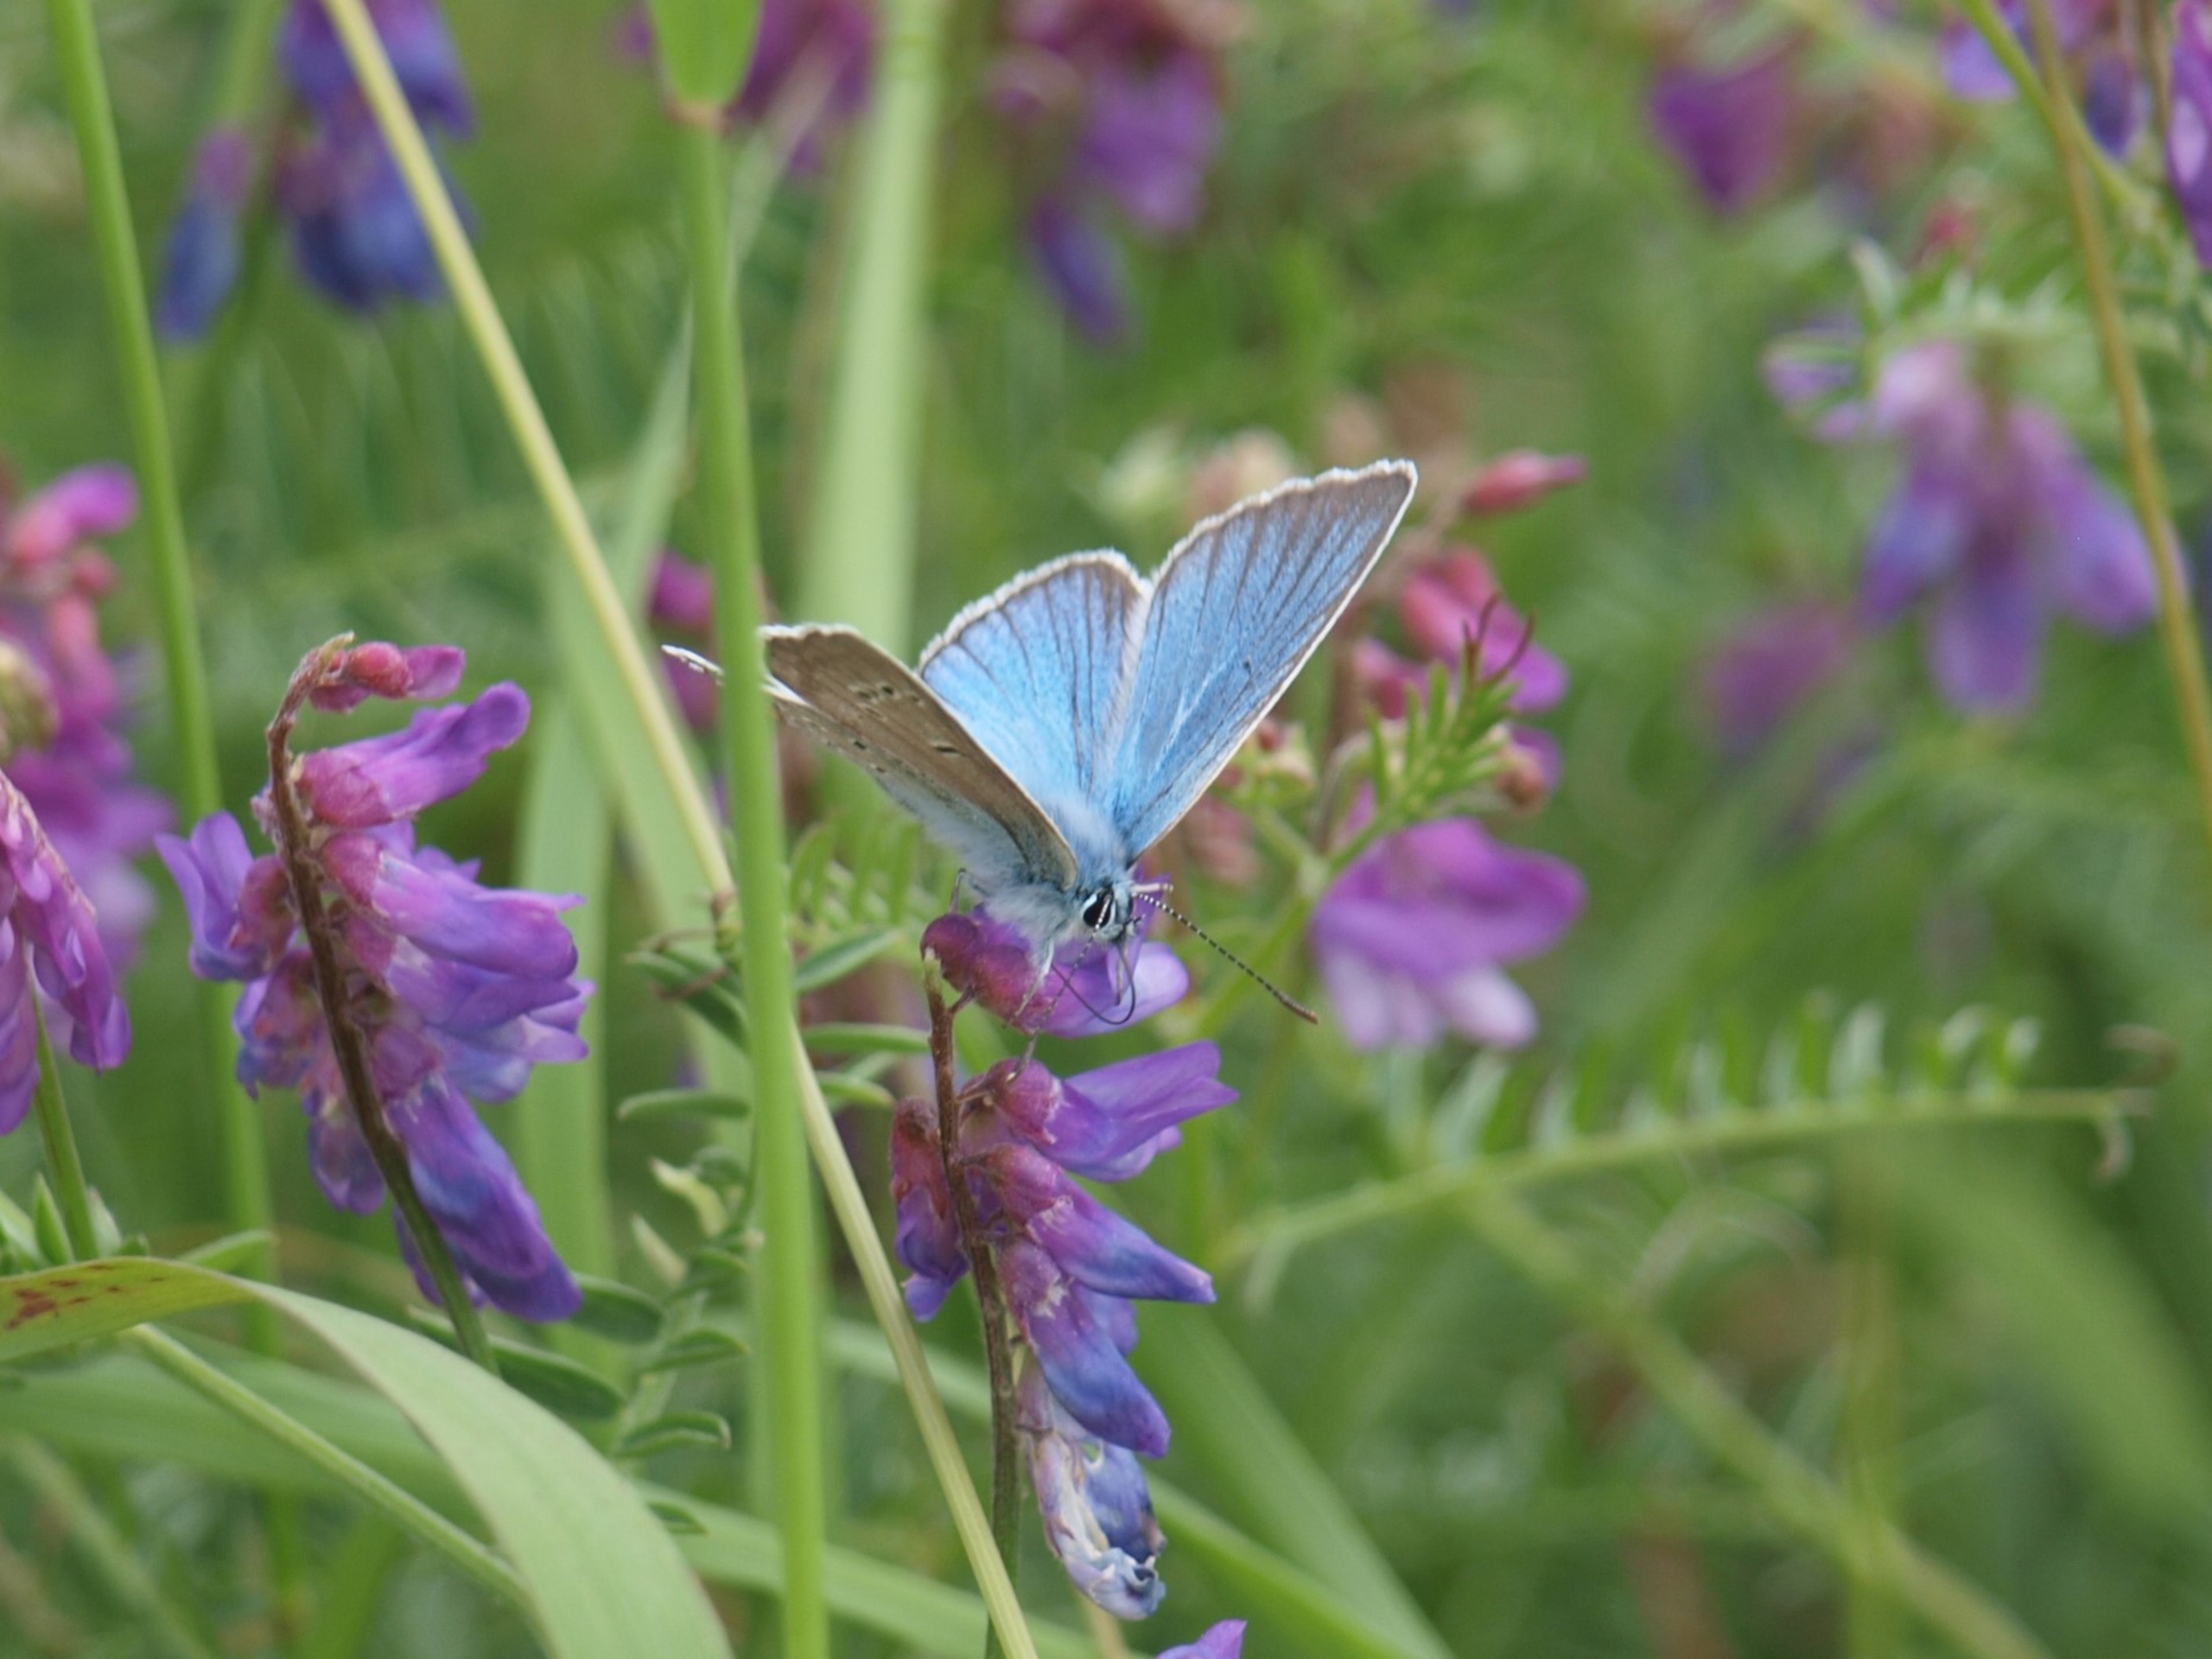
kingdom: Animalia
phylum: Arthropoda
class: Insecta
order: Lepidoptera
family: Lycaenidae
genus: Plebejus
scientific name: Plebejus amanda
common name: Isblåfugl
